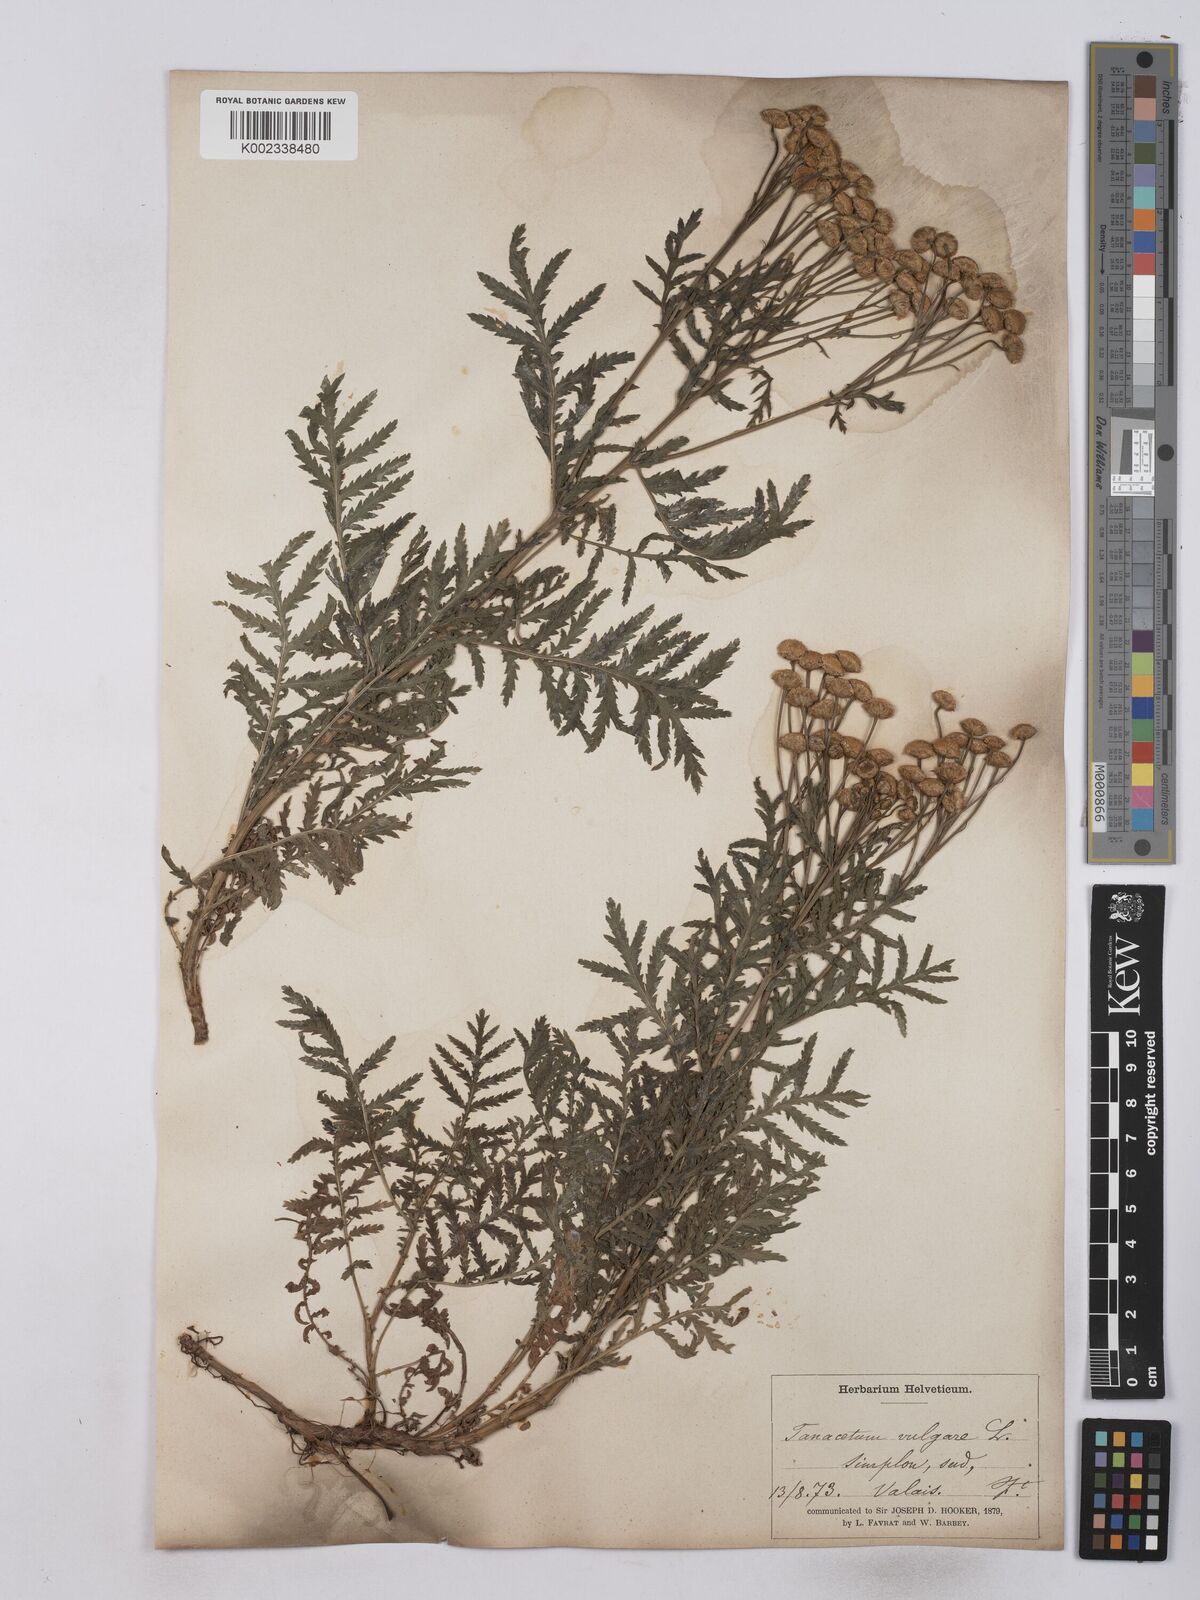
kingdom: Plantae
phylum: Tracheophyta
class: Magnoliopsida
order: Asterales
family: Asteraceae
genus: Tanacetum
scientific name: Tanacetum vulgare
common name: Common tansy
